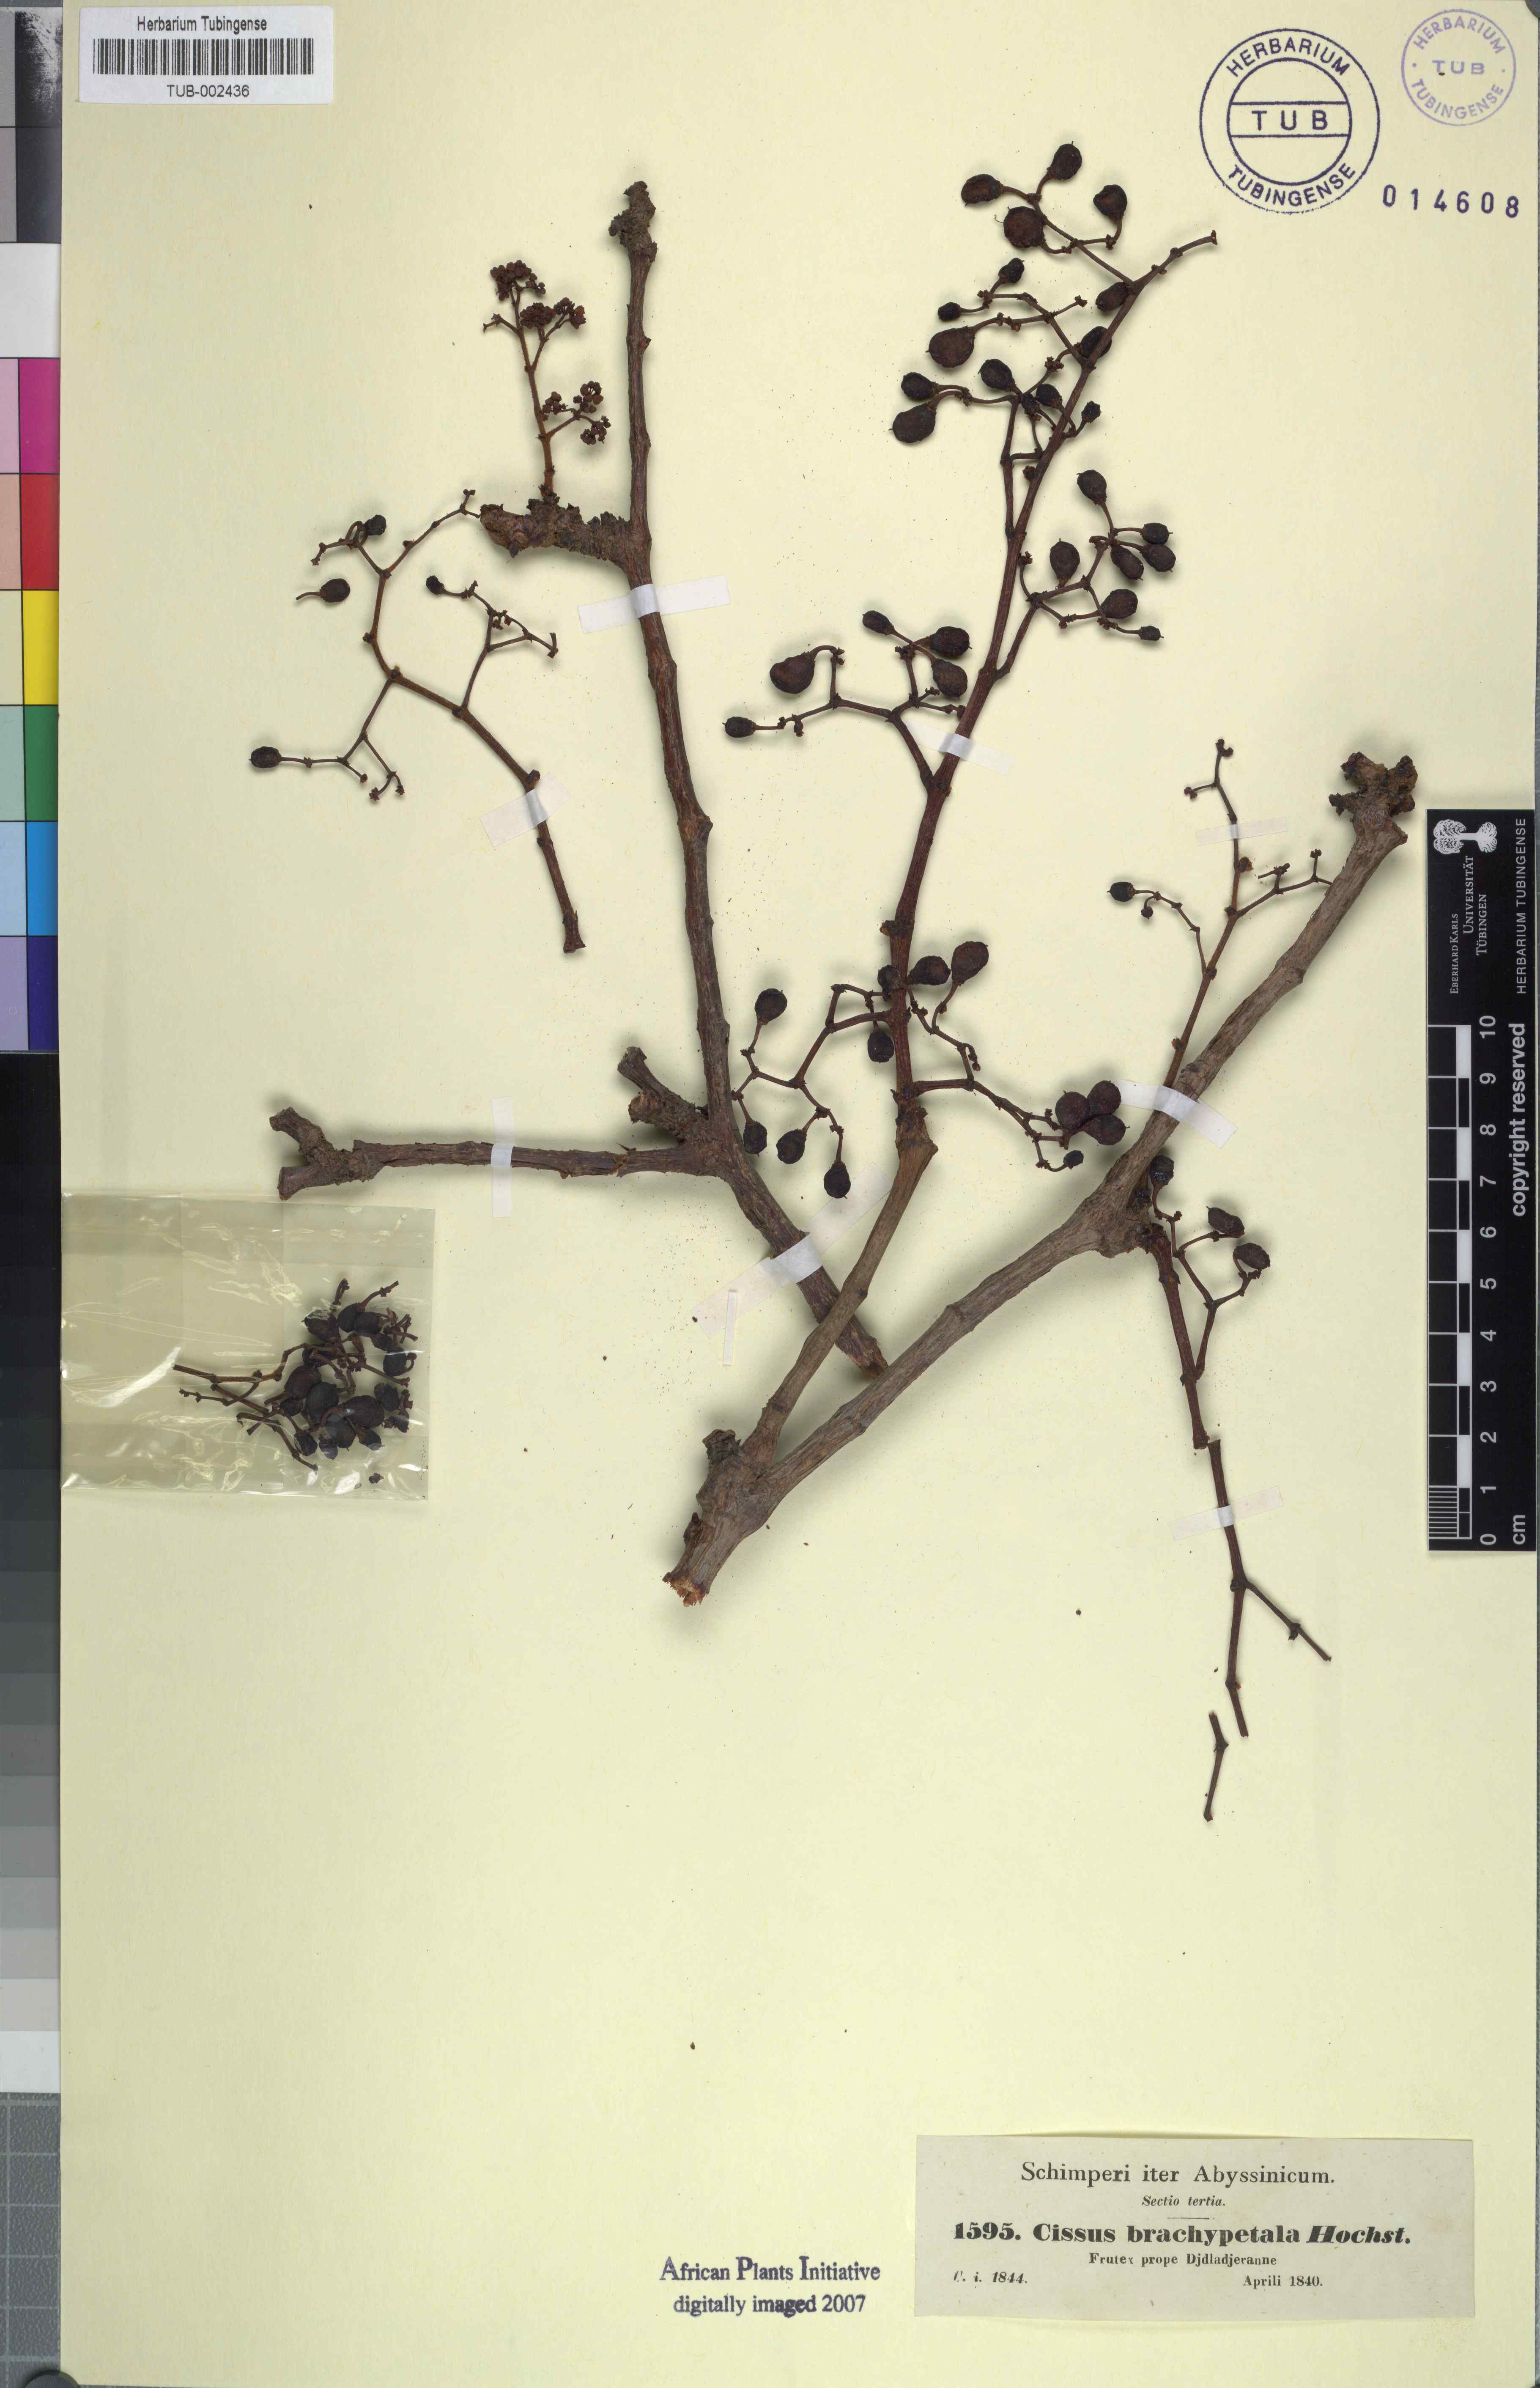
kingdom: Plantae
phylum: Tracheophyta
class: Magnoliopsida
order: Vitales
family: Vitaceae
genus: Cissus
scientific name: Cissus
